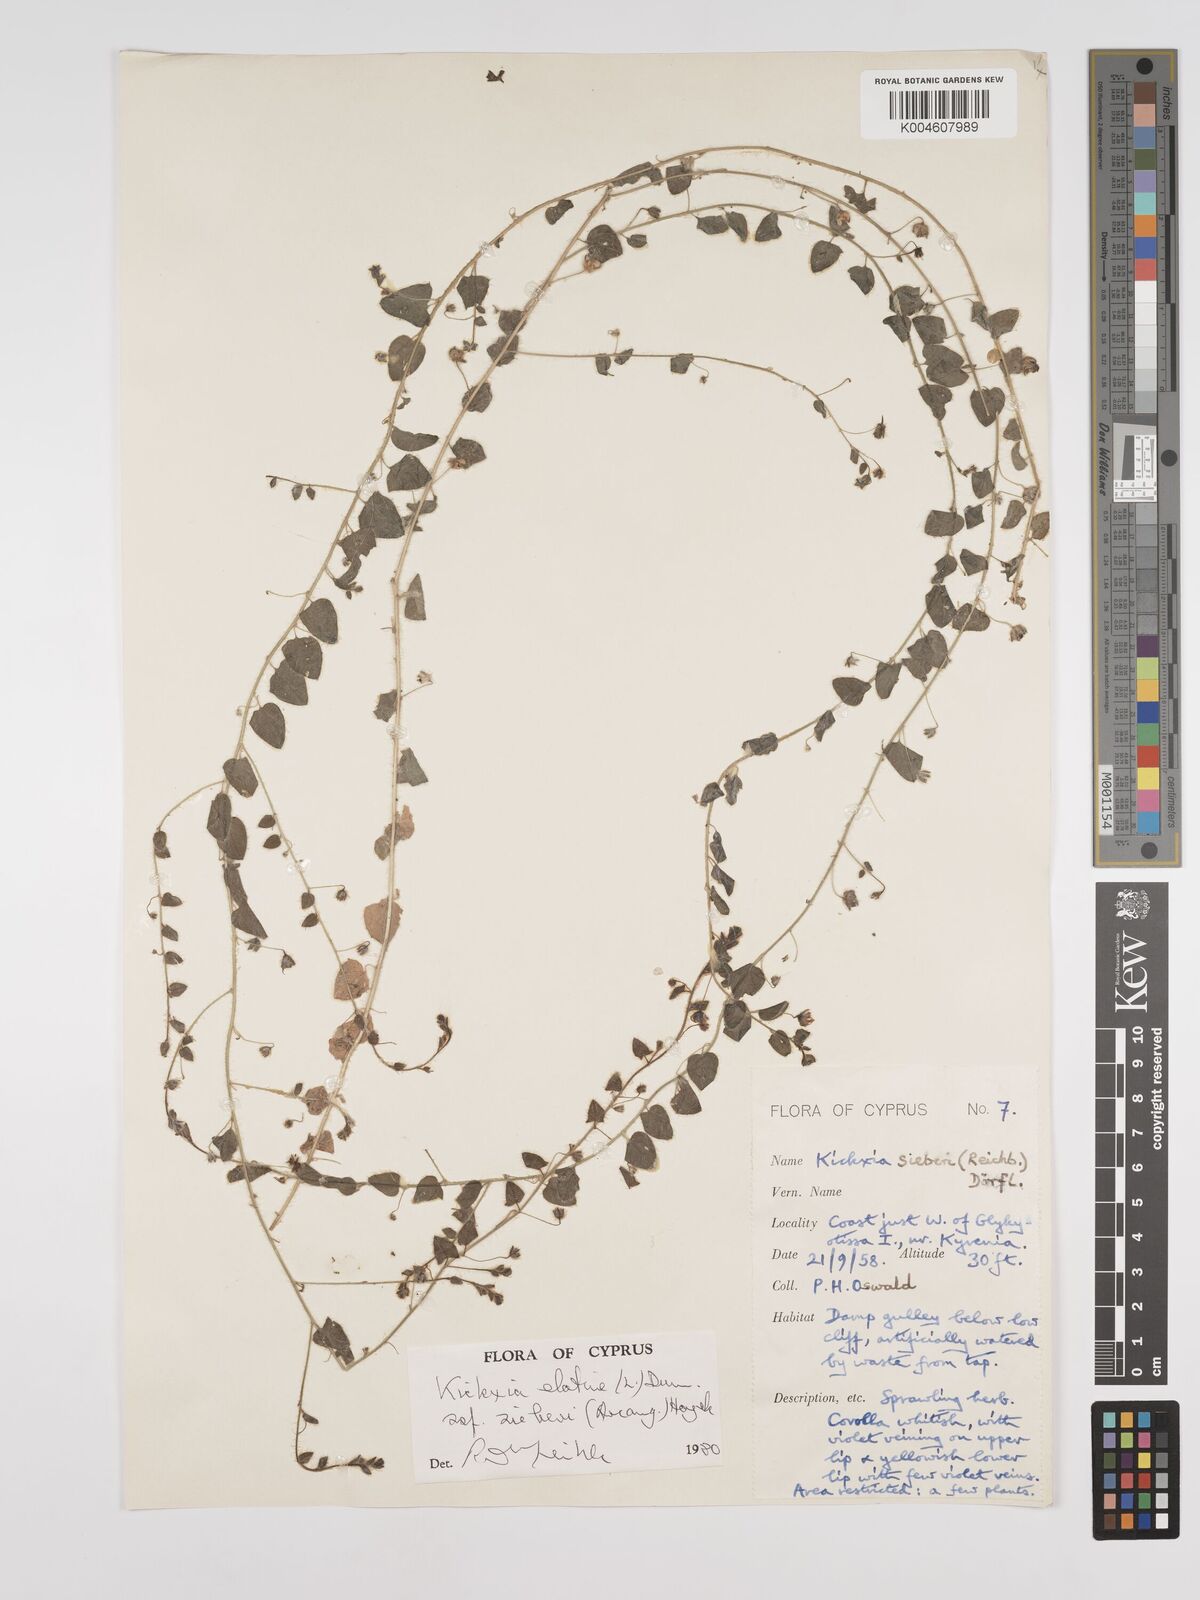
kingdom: Plantae
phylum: Tracheophyta
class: Magnoliopsida
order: Lamiales
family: Plantaginaceae
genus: Kickxia
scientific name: Kickxia elatine
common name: Sharp-leaved fluellen
